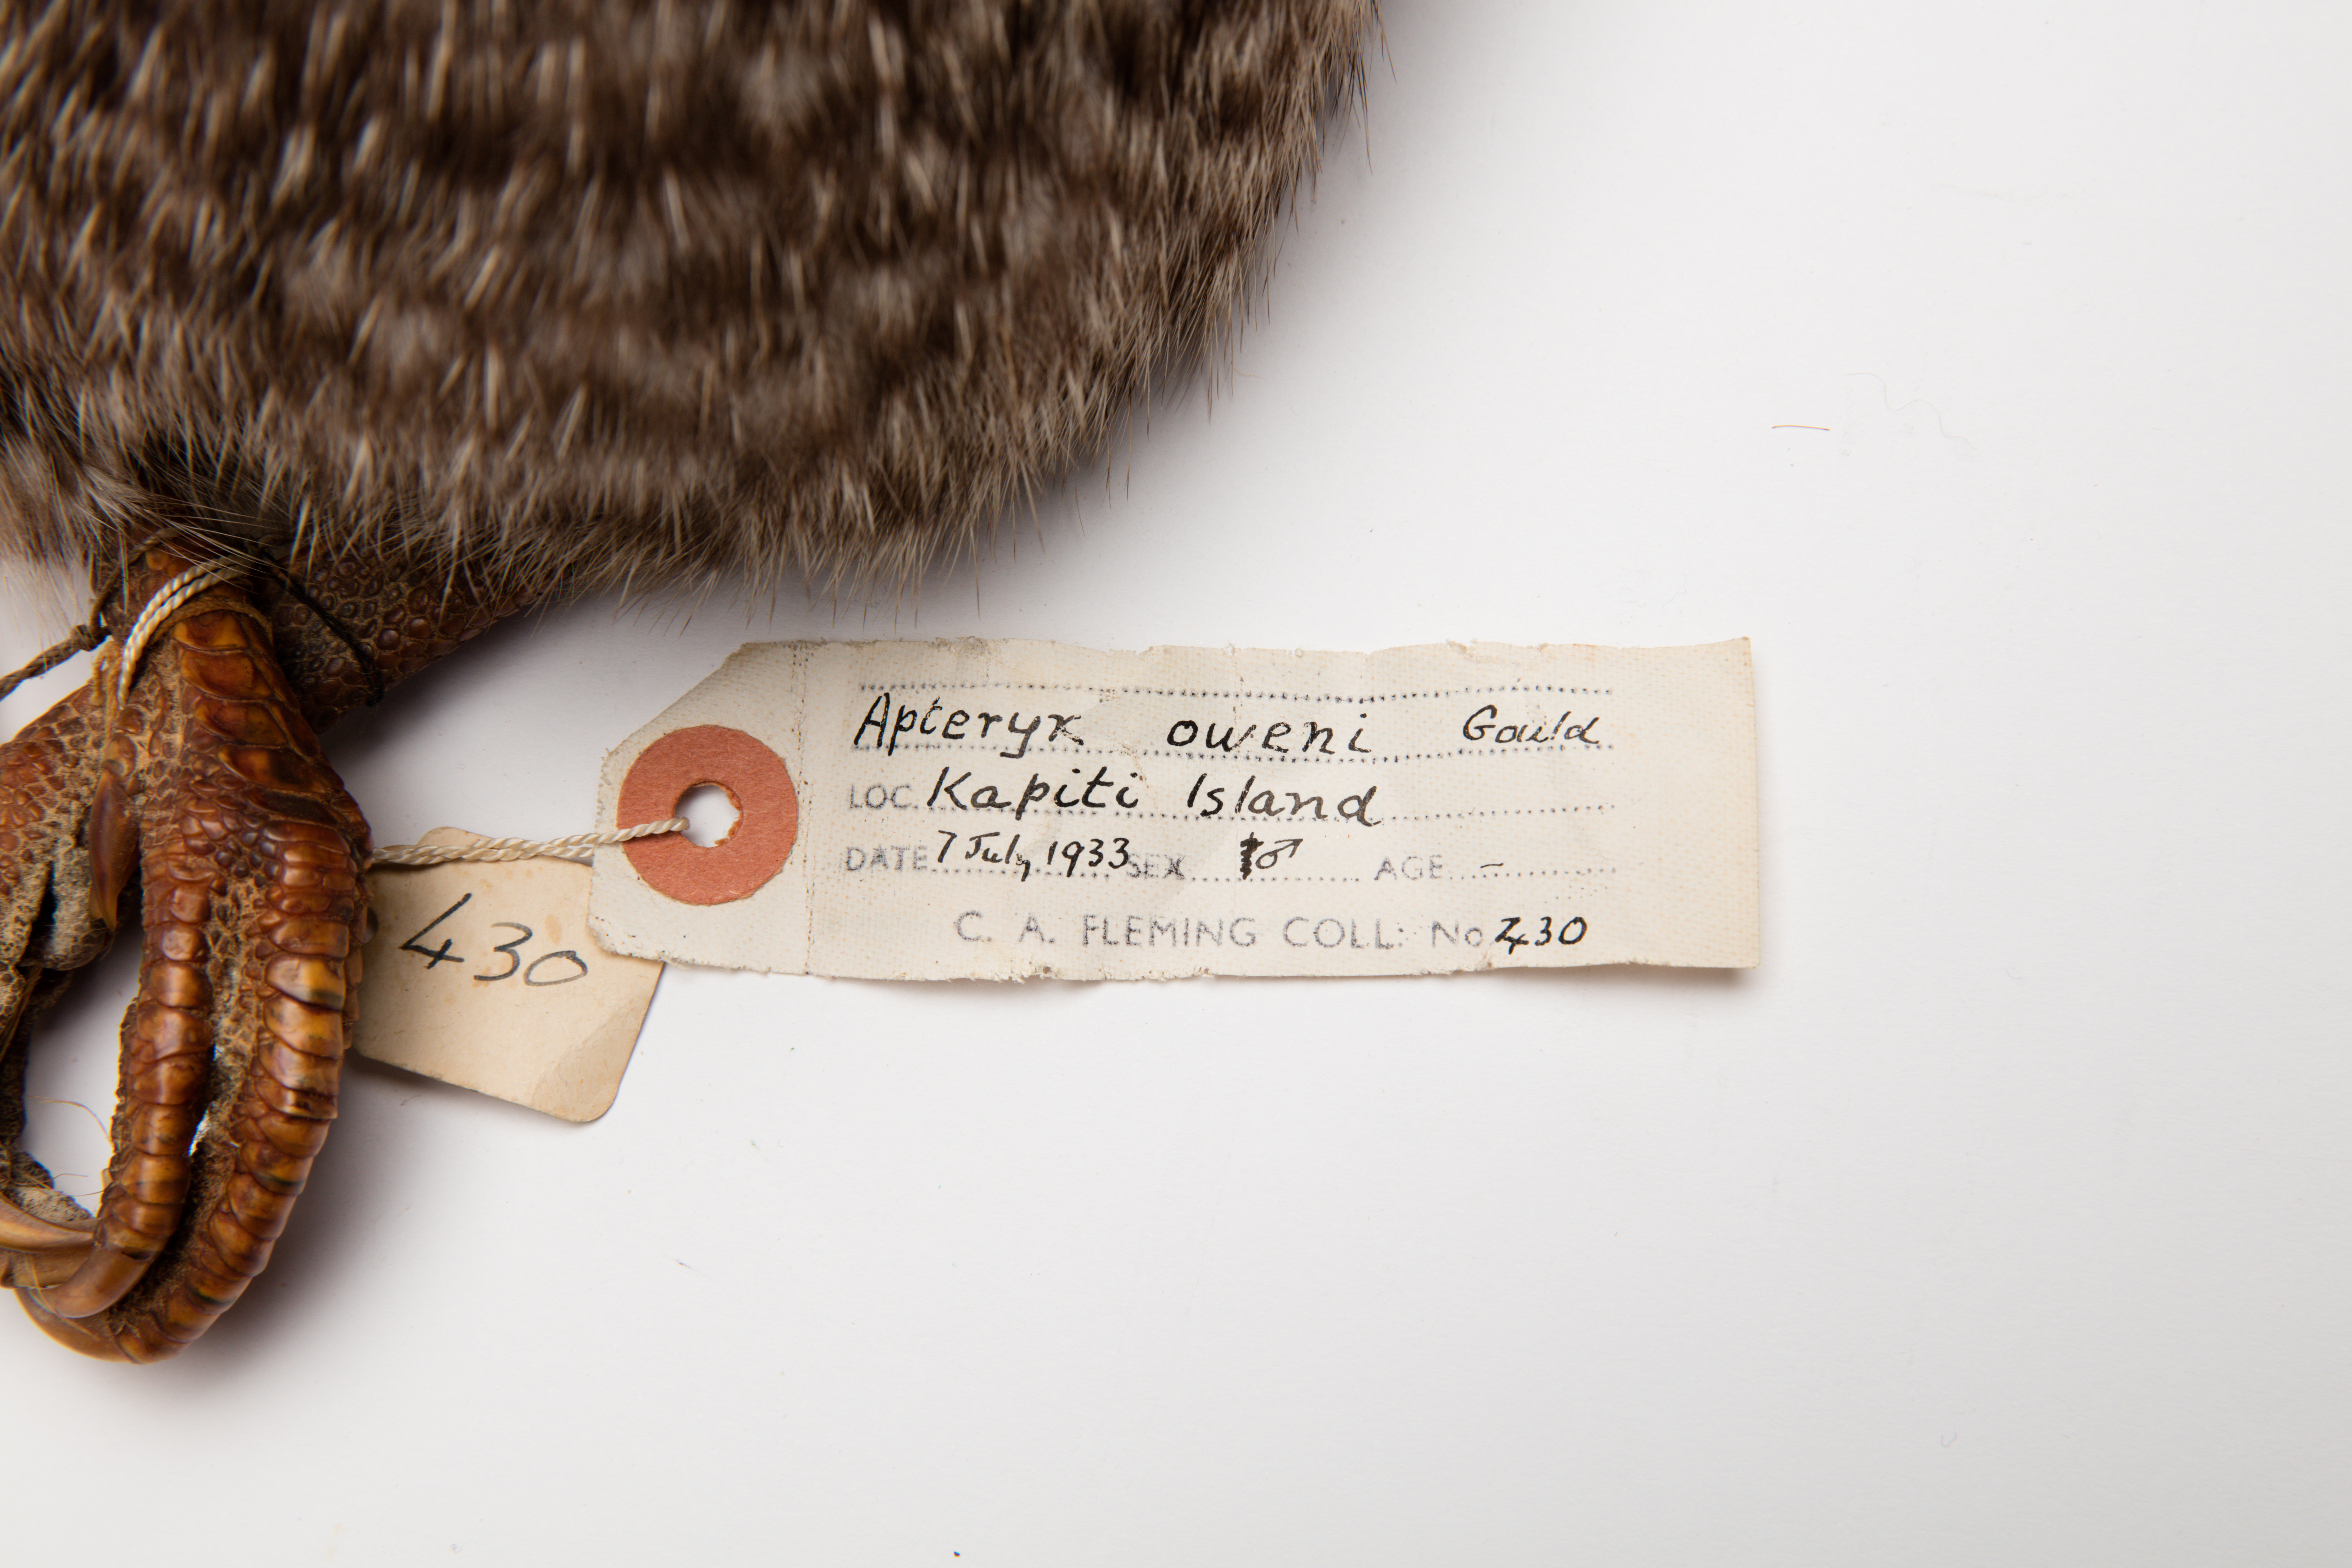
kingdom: Animalia
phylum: Chordata
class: Aves
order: Apterygiformes
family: Apterygidae
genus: Apteryx
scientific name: Apteryx owenii
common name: Little spotted kiwi
